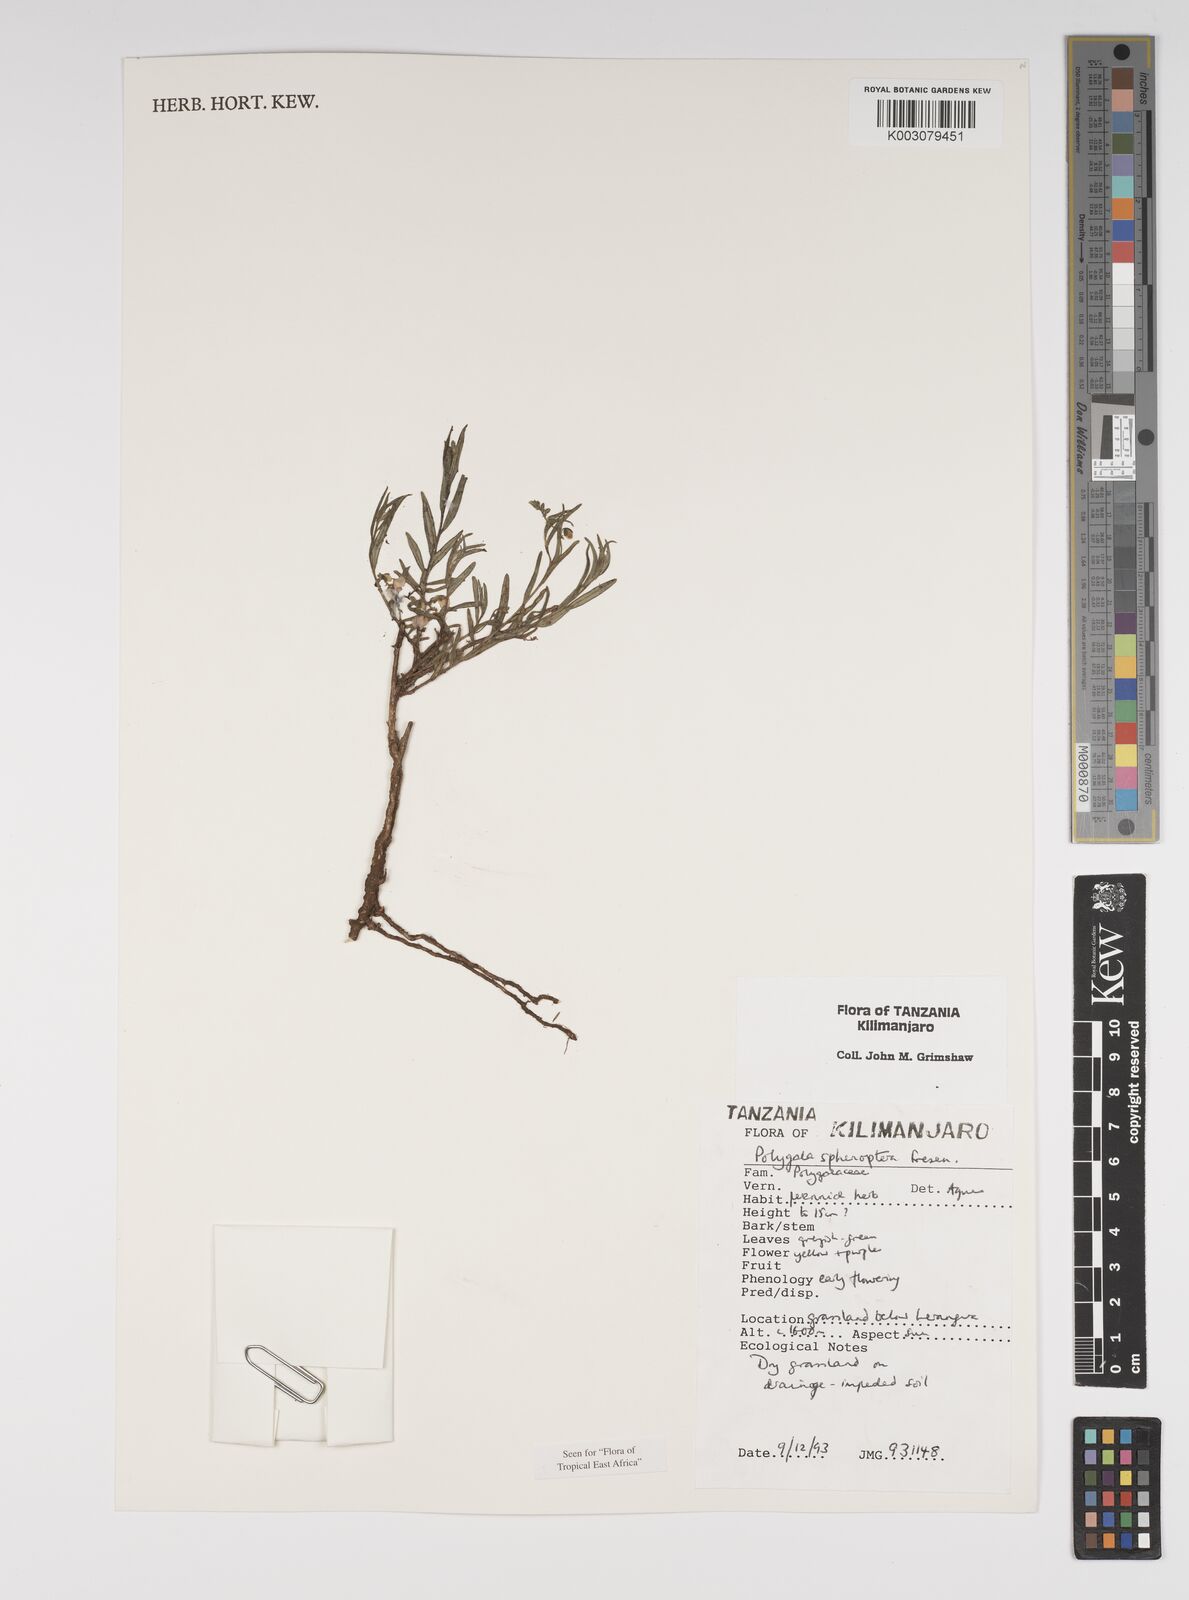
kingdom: Plantae
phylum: Tracheophyta
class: Magnoliopsida
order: Fabales
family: Polygalaceae
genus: Polygala
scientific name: Polygala sphenoptera
